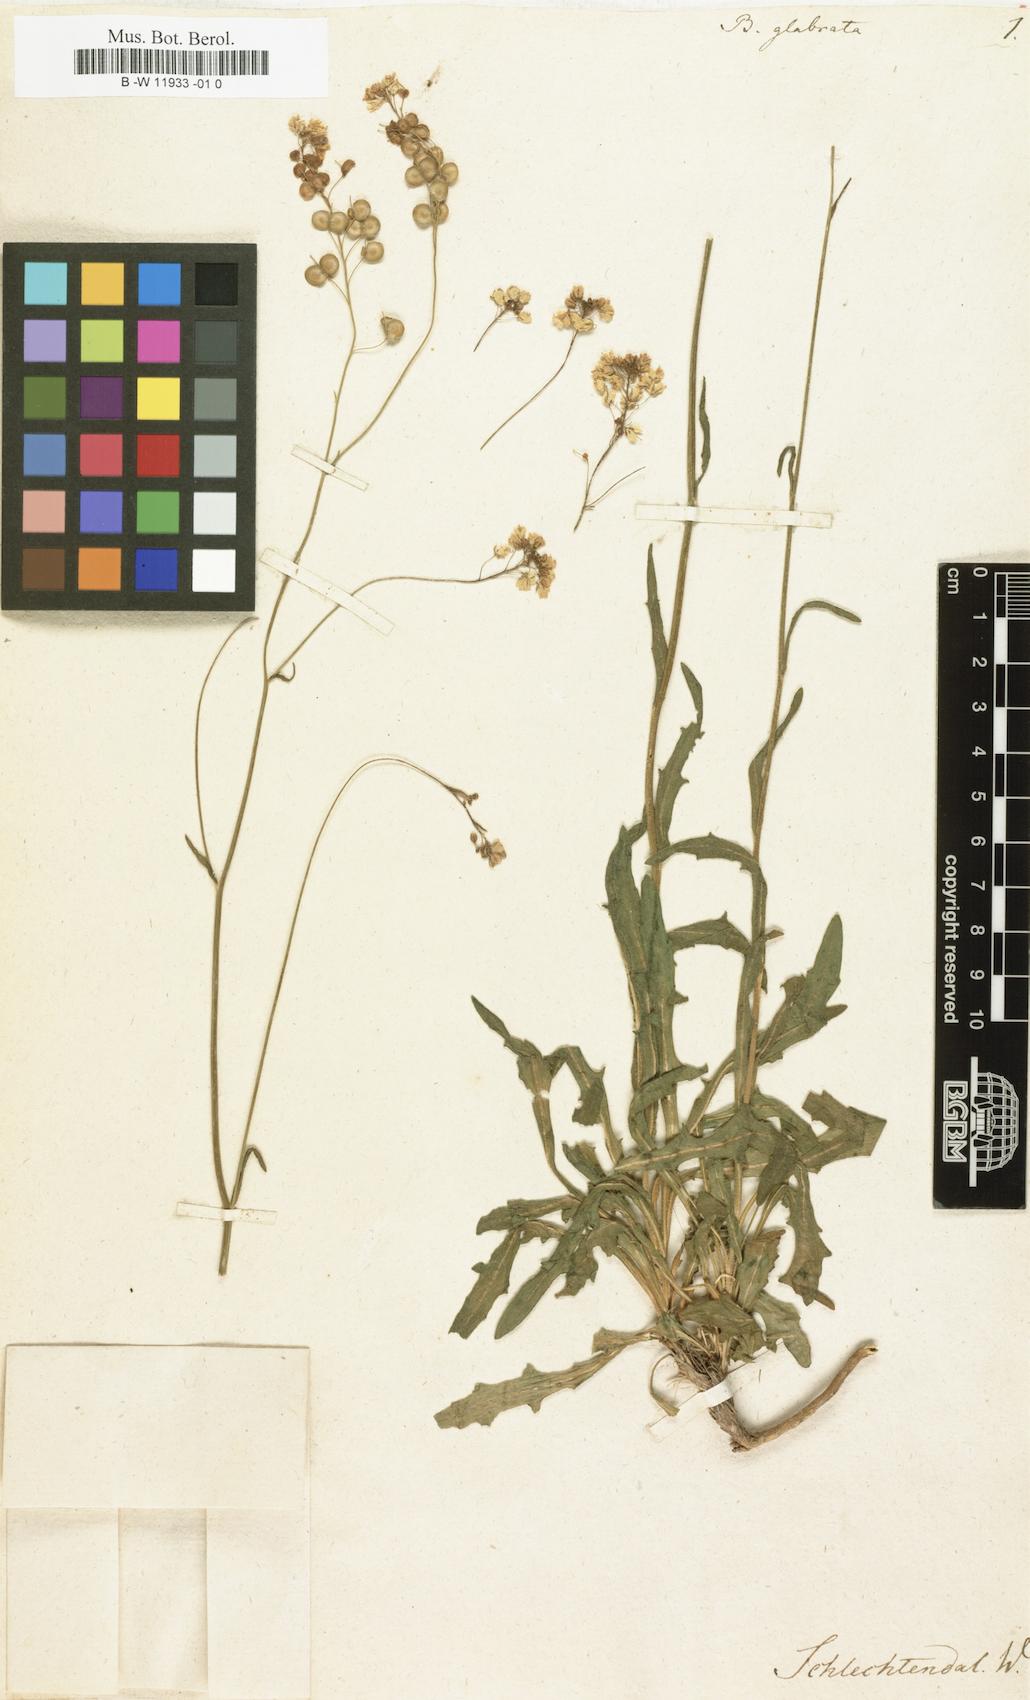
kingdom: Plantae
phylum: Tracheophyta
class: Magnoliopsida
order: Brassicales
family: Brassicaceae
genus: Biscutella
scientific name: Biscutella laevigata
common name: Buckler mustard
